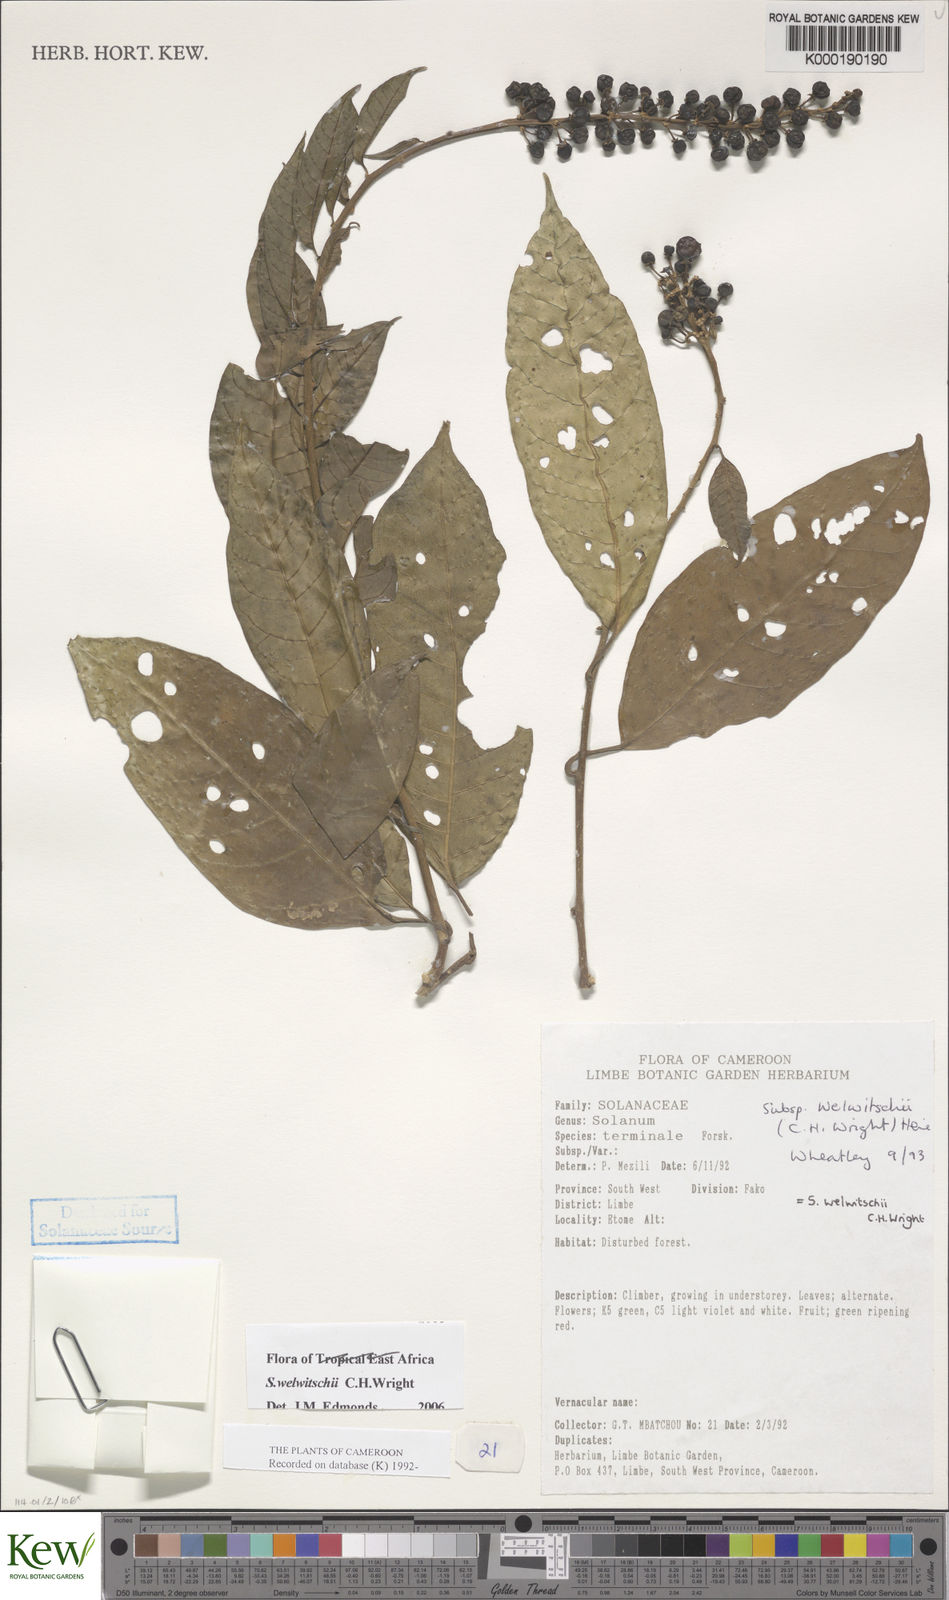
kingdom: Plantae
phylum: Tracheophyta
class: Magnoliopsida
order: Solanales
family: Solanaceae
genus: Solanum
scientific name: Solanum terminale
